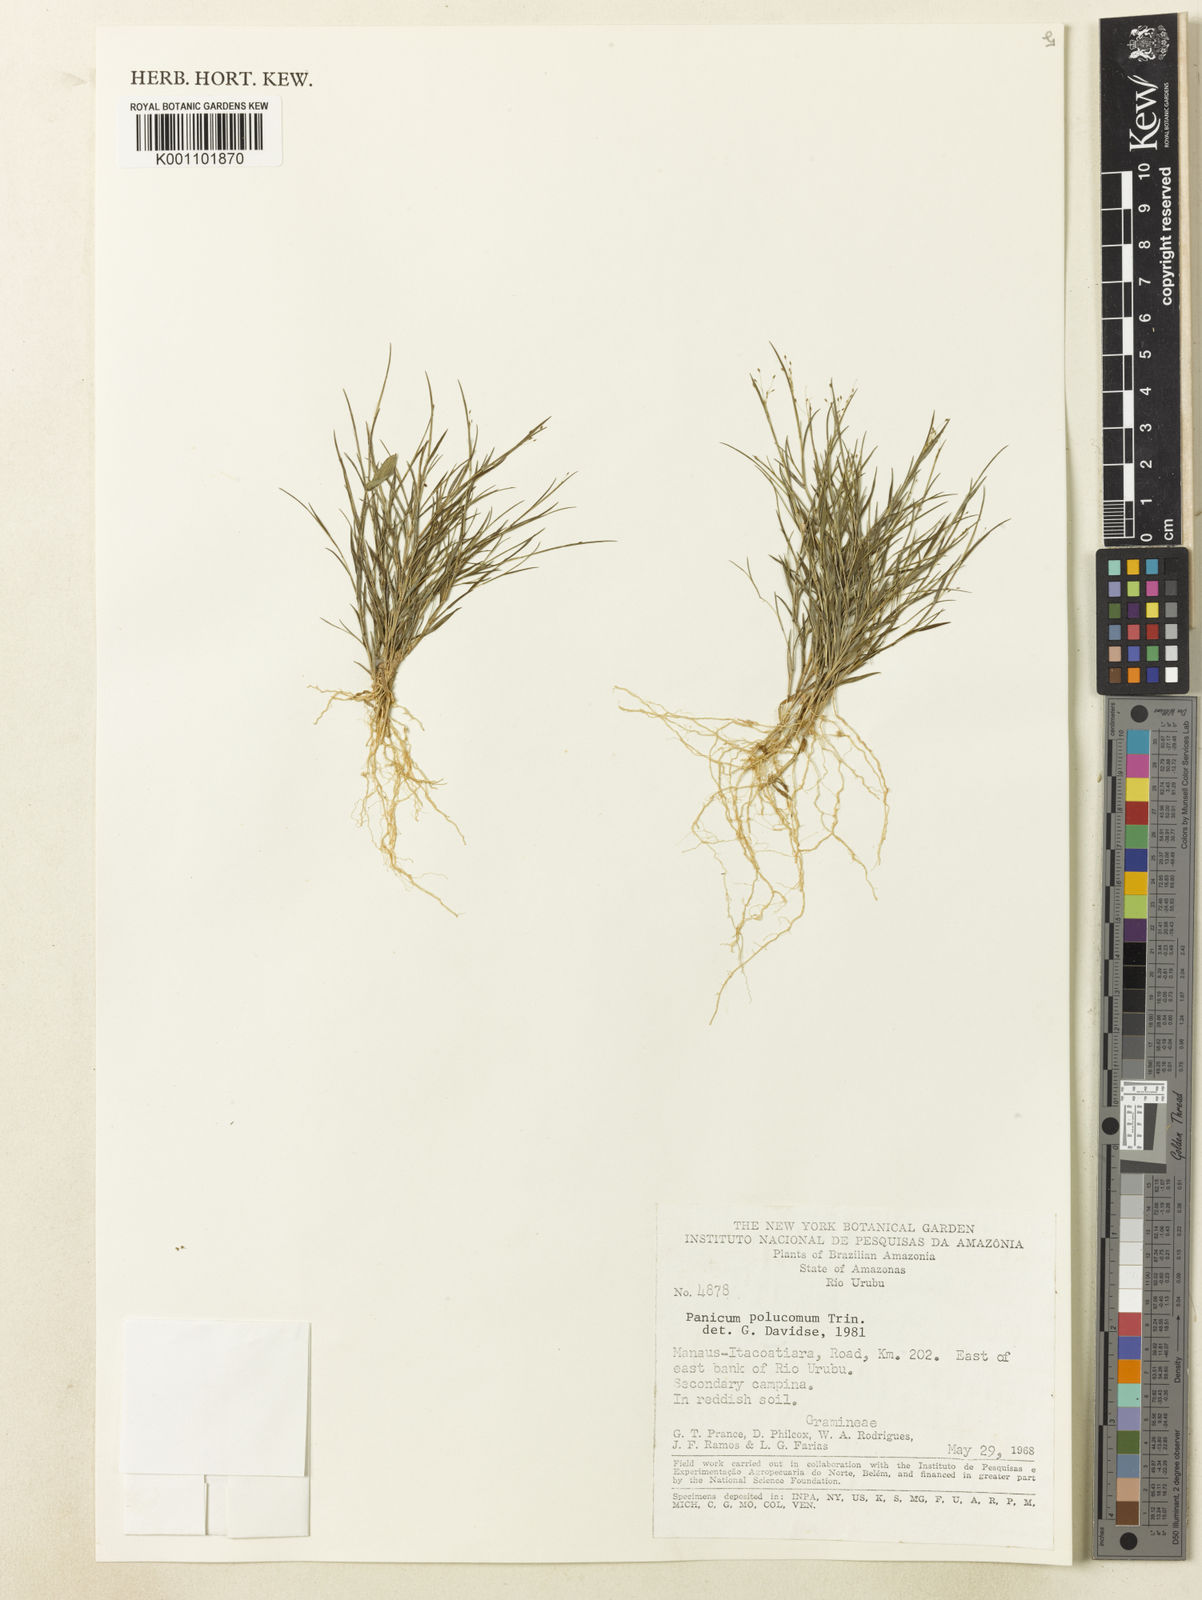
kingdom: Plantae
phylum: Tracheophyta
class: Liliopsida
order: Poales
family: Poaceae
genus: Trichanthecium
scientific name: Trichanthecium polycomum
